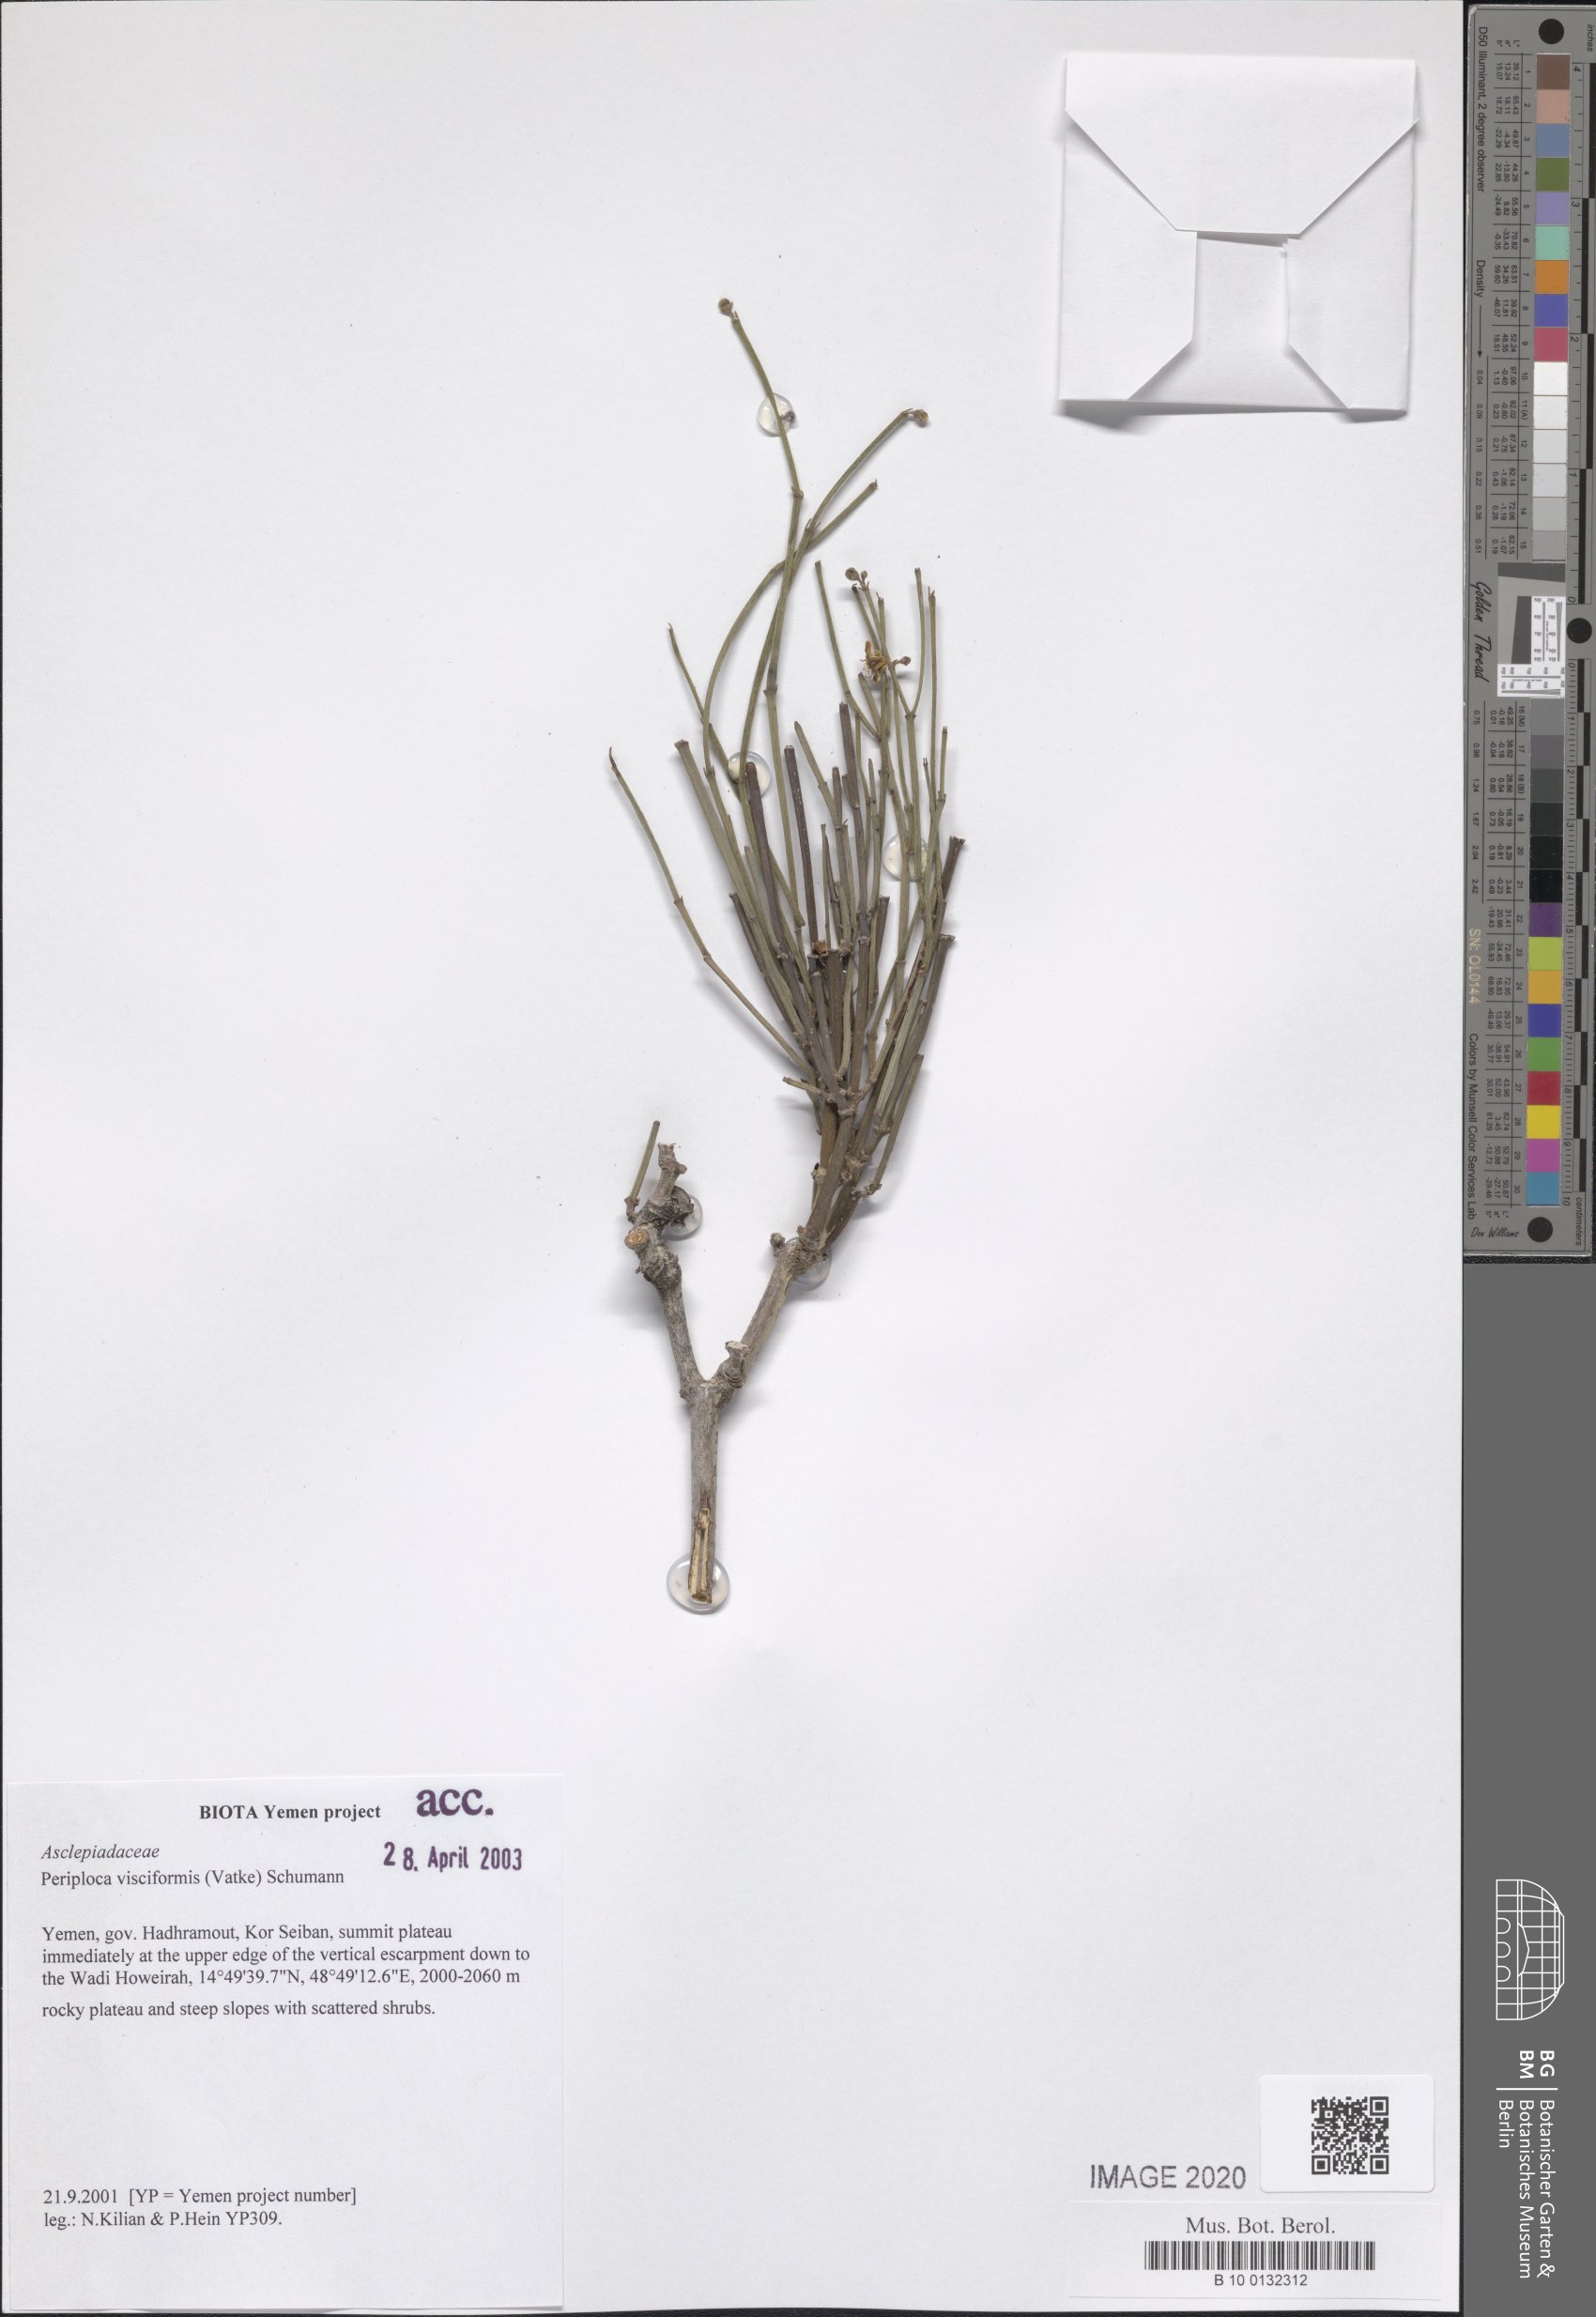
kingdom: Plantae
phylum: Tracheophyta
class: Magnoliopsida
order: Gentianales
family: Apocynaceae
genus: Periploca
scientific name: Periploca visciformis
